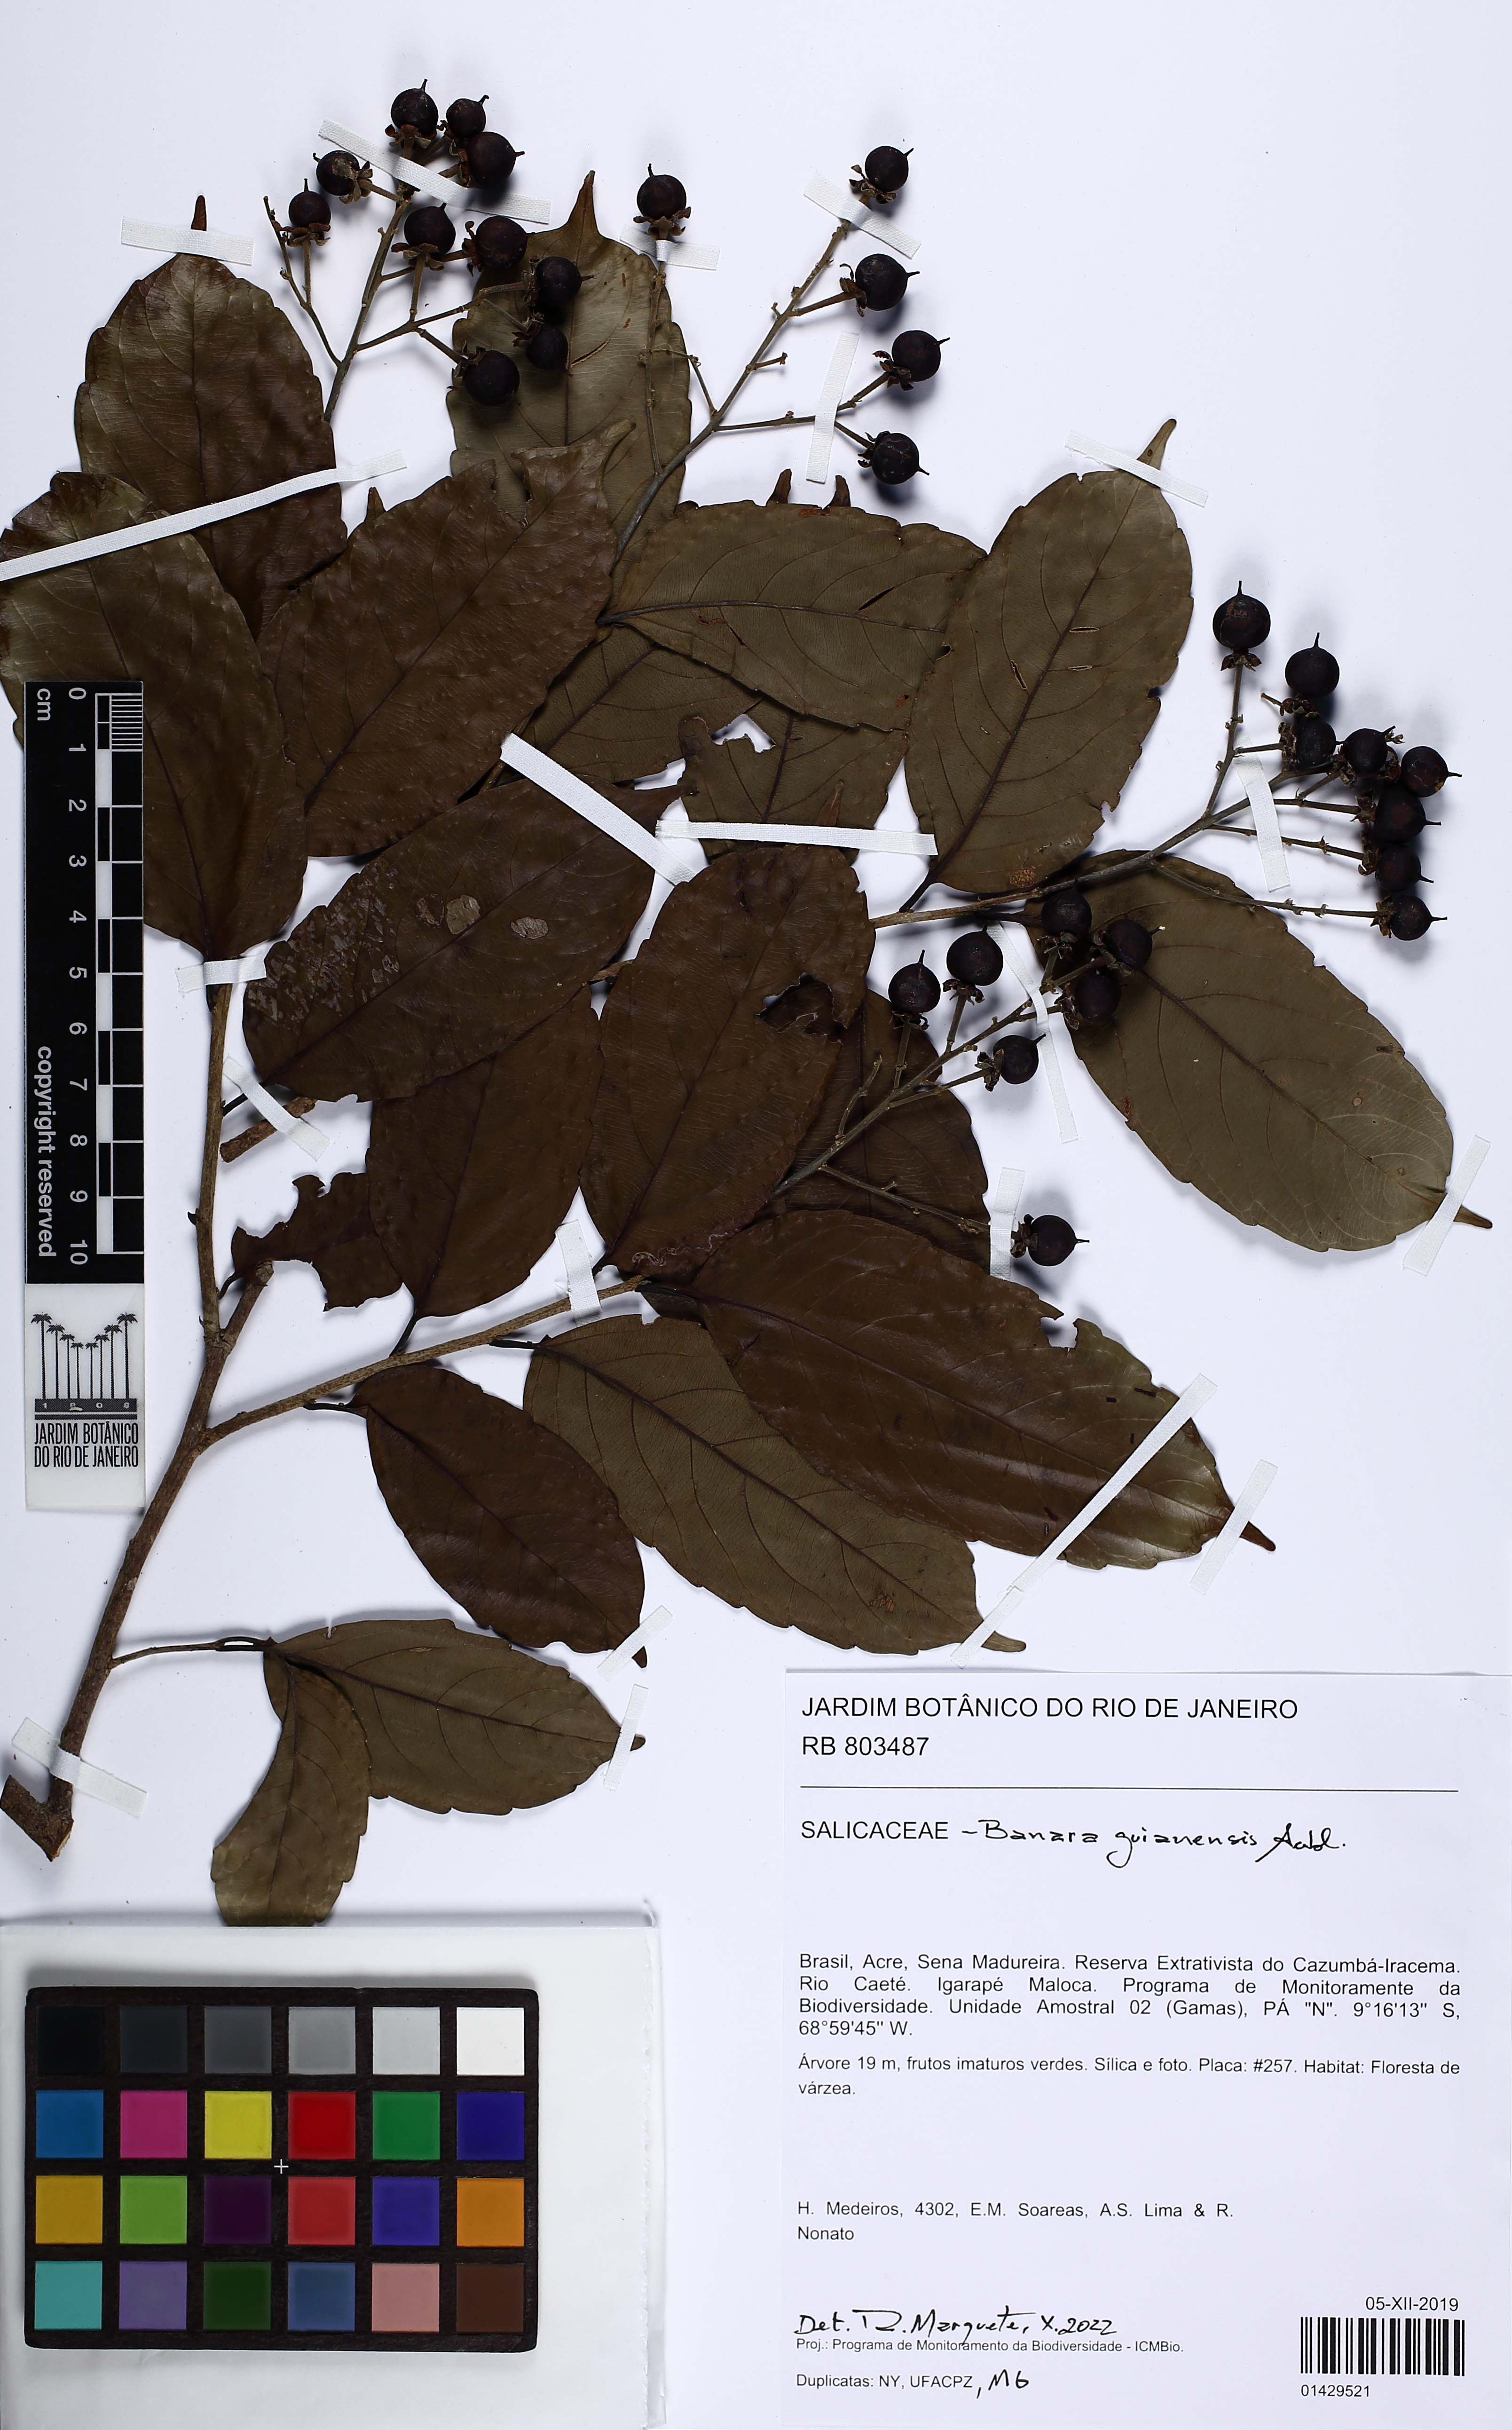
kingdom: Plantae
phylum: Tracheophyta
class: Magnoliopsida
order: Malpighiales
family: Salicaceae
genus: Banara
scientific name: Banara guianensis
